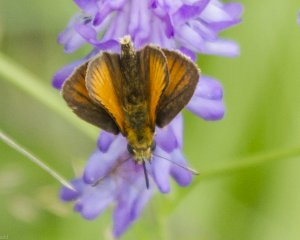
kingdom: Animalia
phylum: Arthropoda
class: Insecta
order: Lepidoptera
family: Hesperiidae
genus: Ancyloxypha
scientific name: Ancyloxypha numitor
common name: Least Skipper
